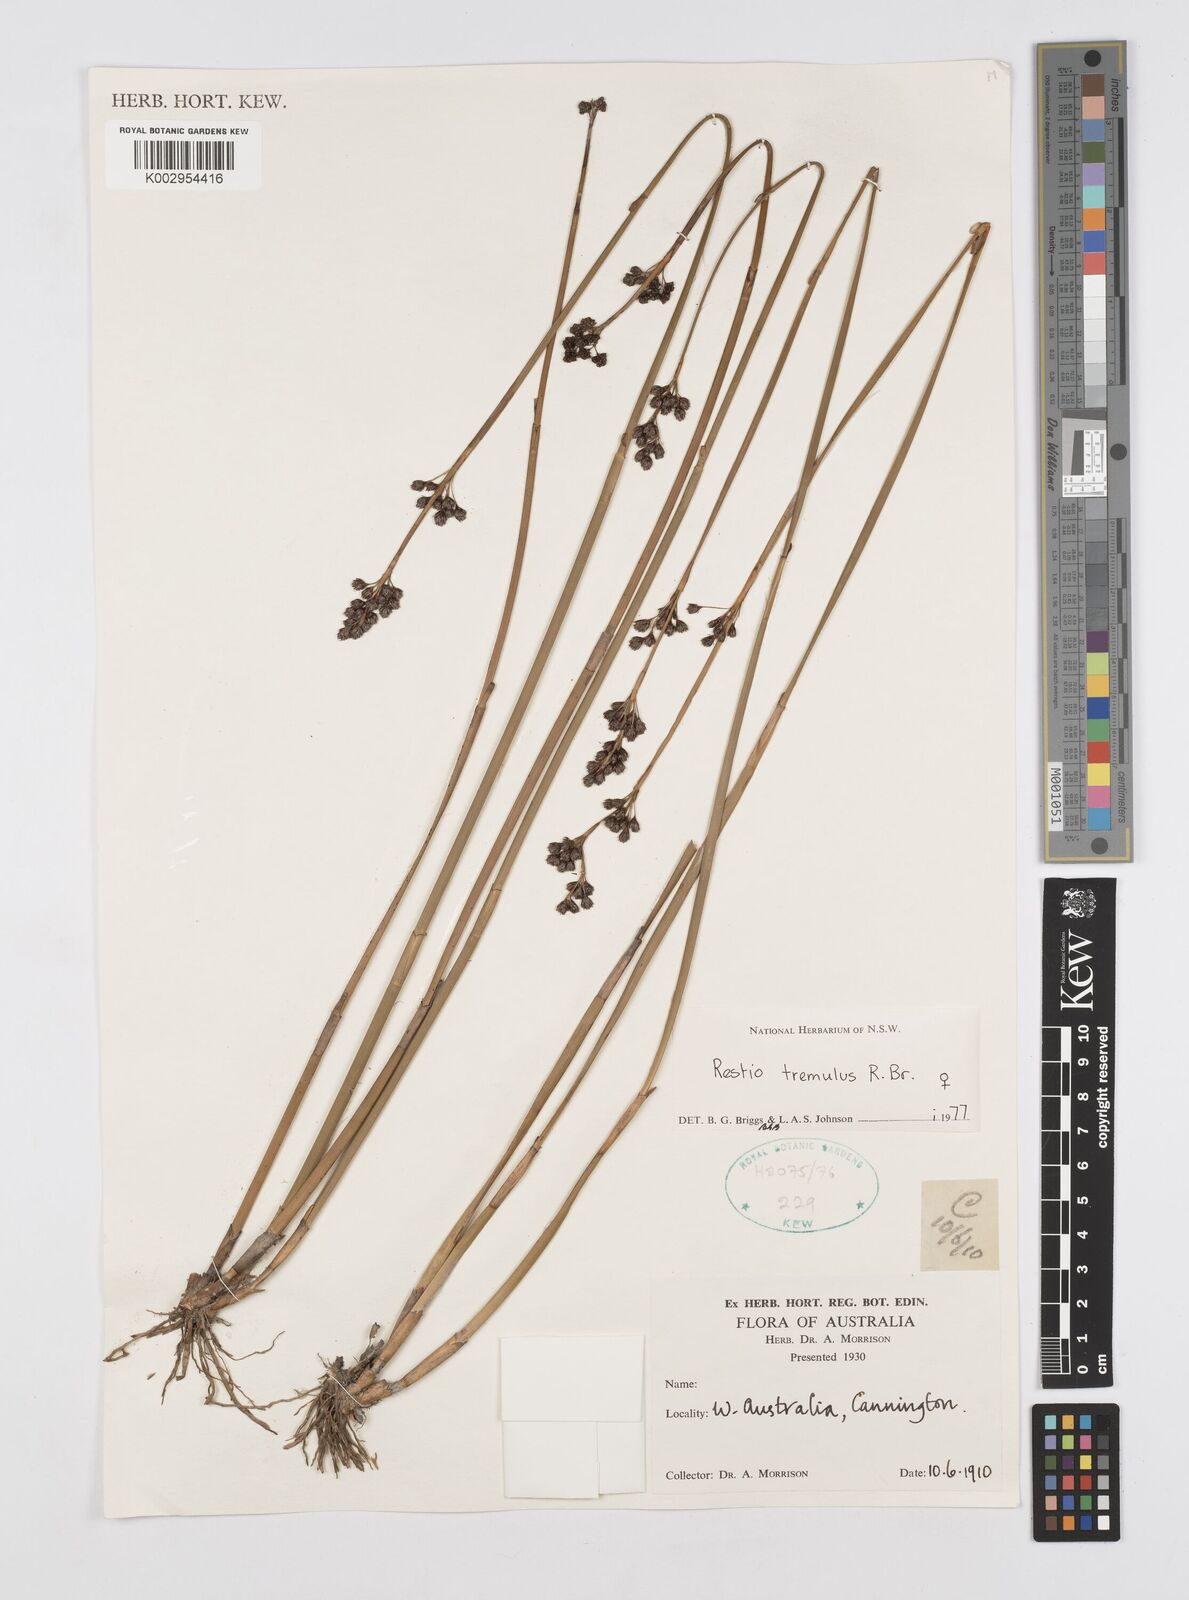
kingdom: Plantae
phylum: Tracheophyta
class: Liliopsida
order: Poales
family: Restionaceae
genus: Tremulina
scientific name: Tremulina tremula
